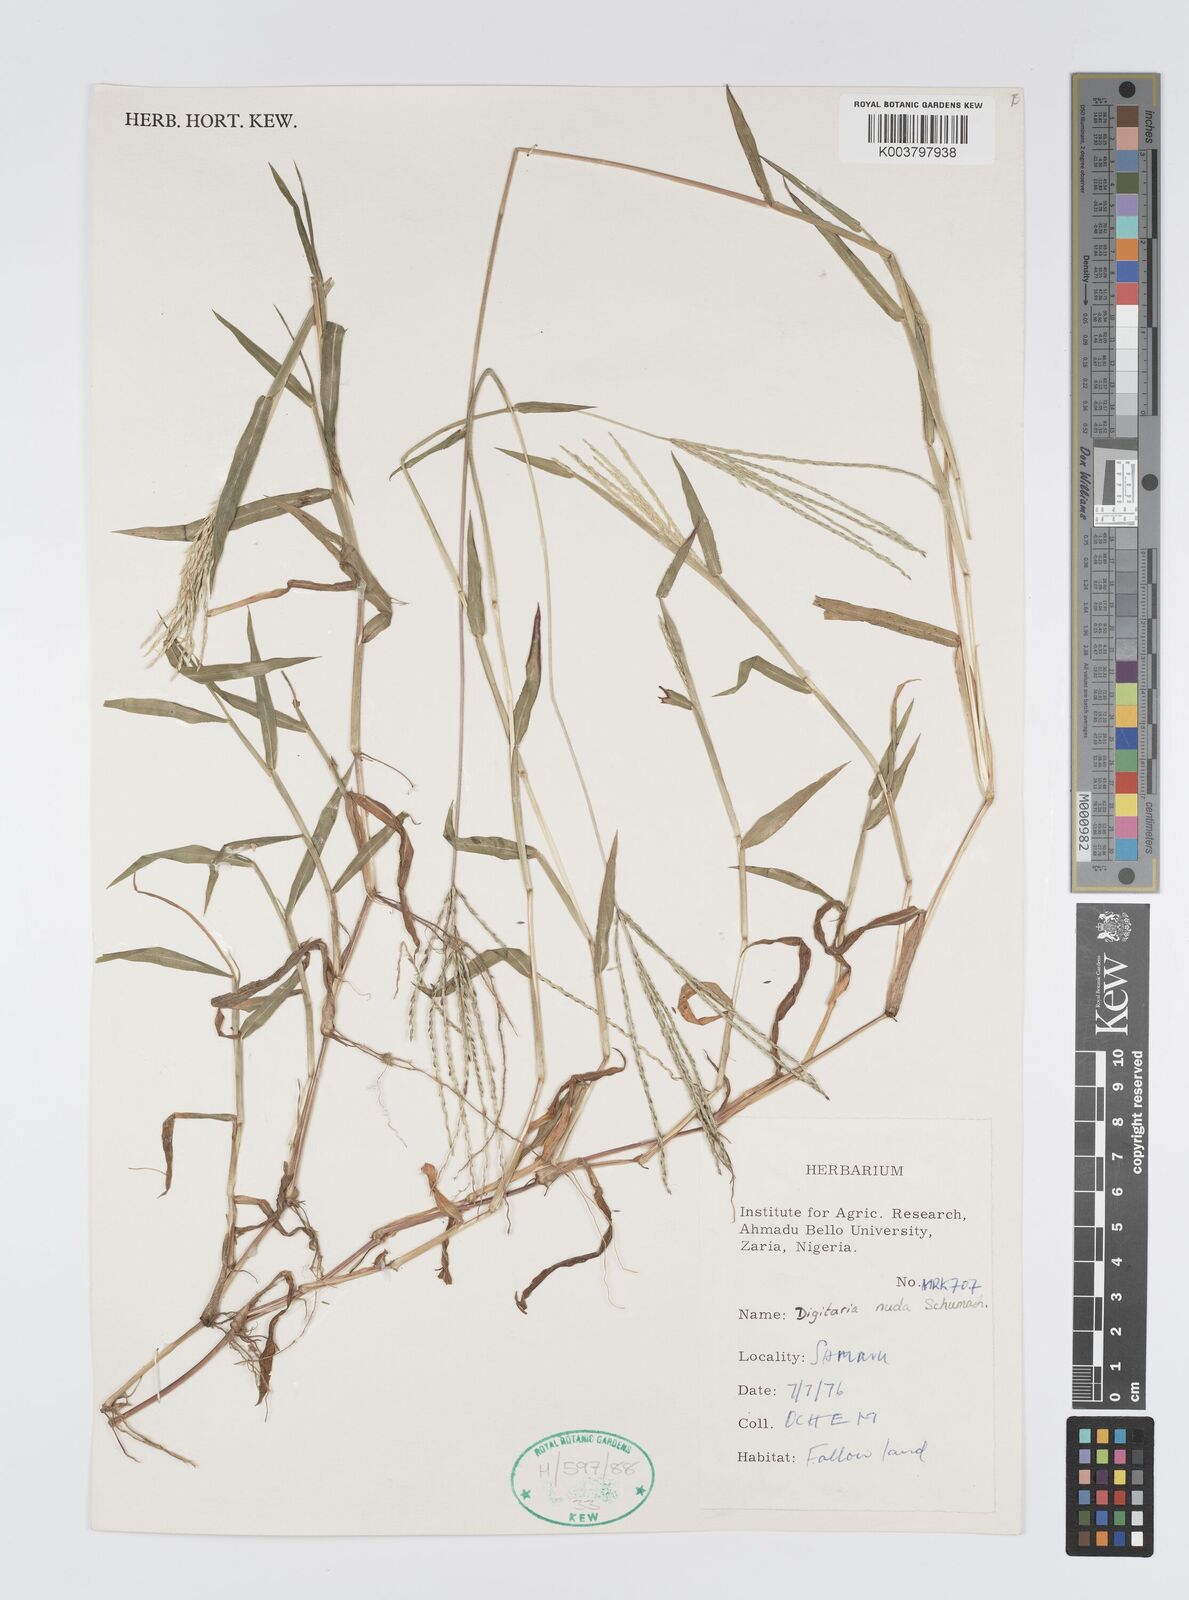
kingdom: Plantae
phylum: Tracheophyta
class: Liliopsida
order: Poales
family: Poaceae
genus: Digitaria
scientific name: Digitaria nuda
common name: Naked crabgrass
